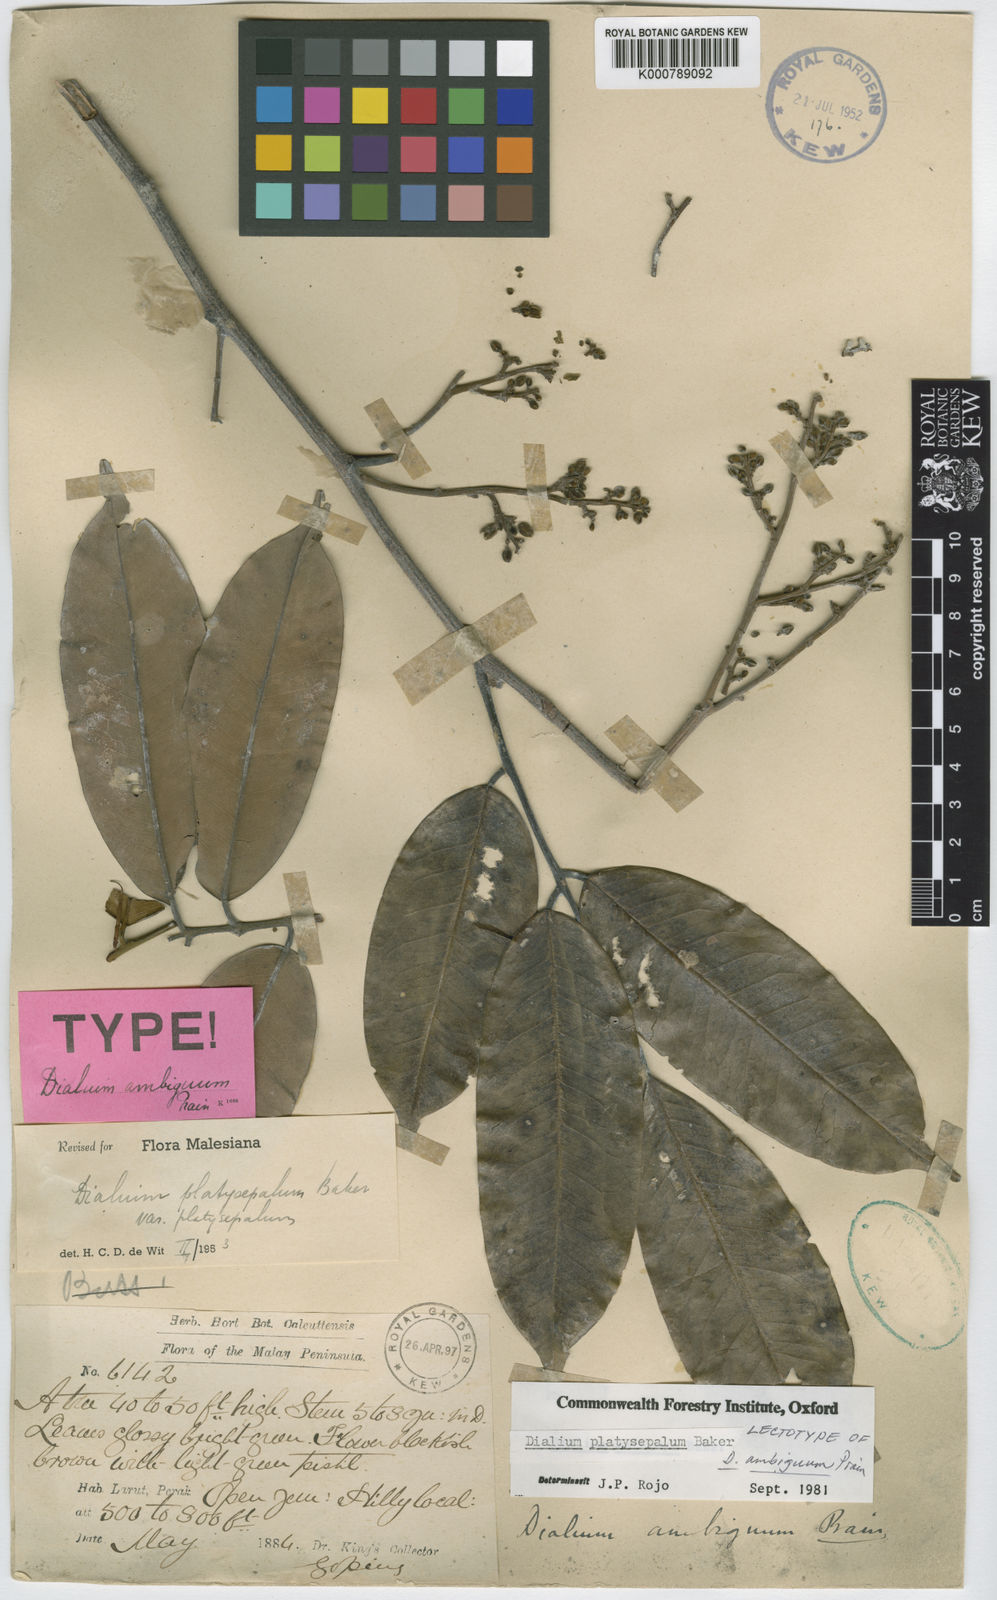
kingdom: Plantae
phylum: Tracheophyta
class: Magnoliopsida
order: Fabales
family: Fabaceae
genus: Dialium
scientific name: Dialium platysepalum
